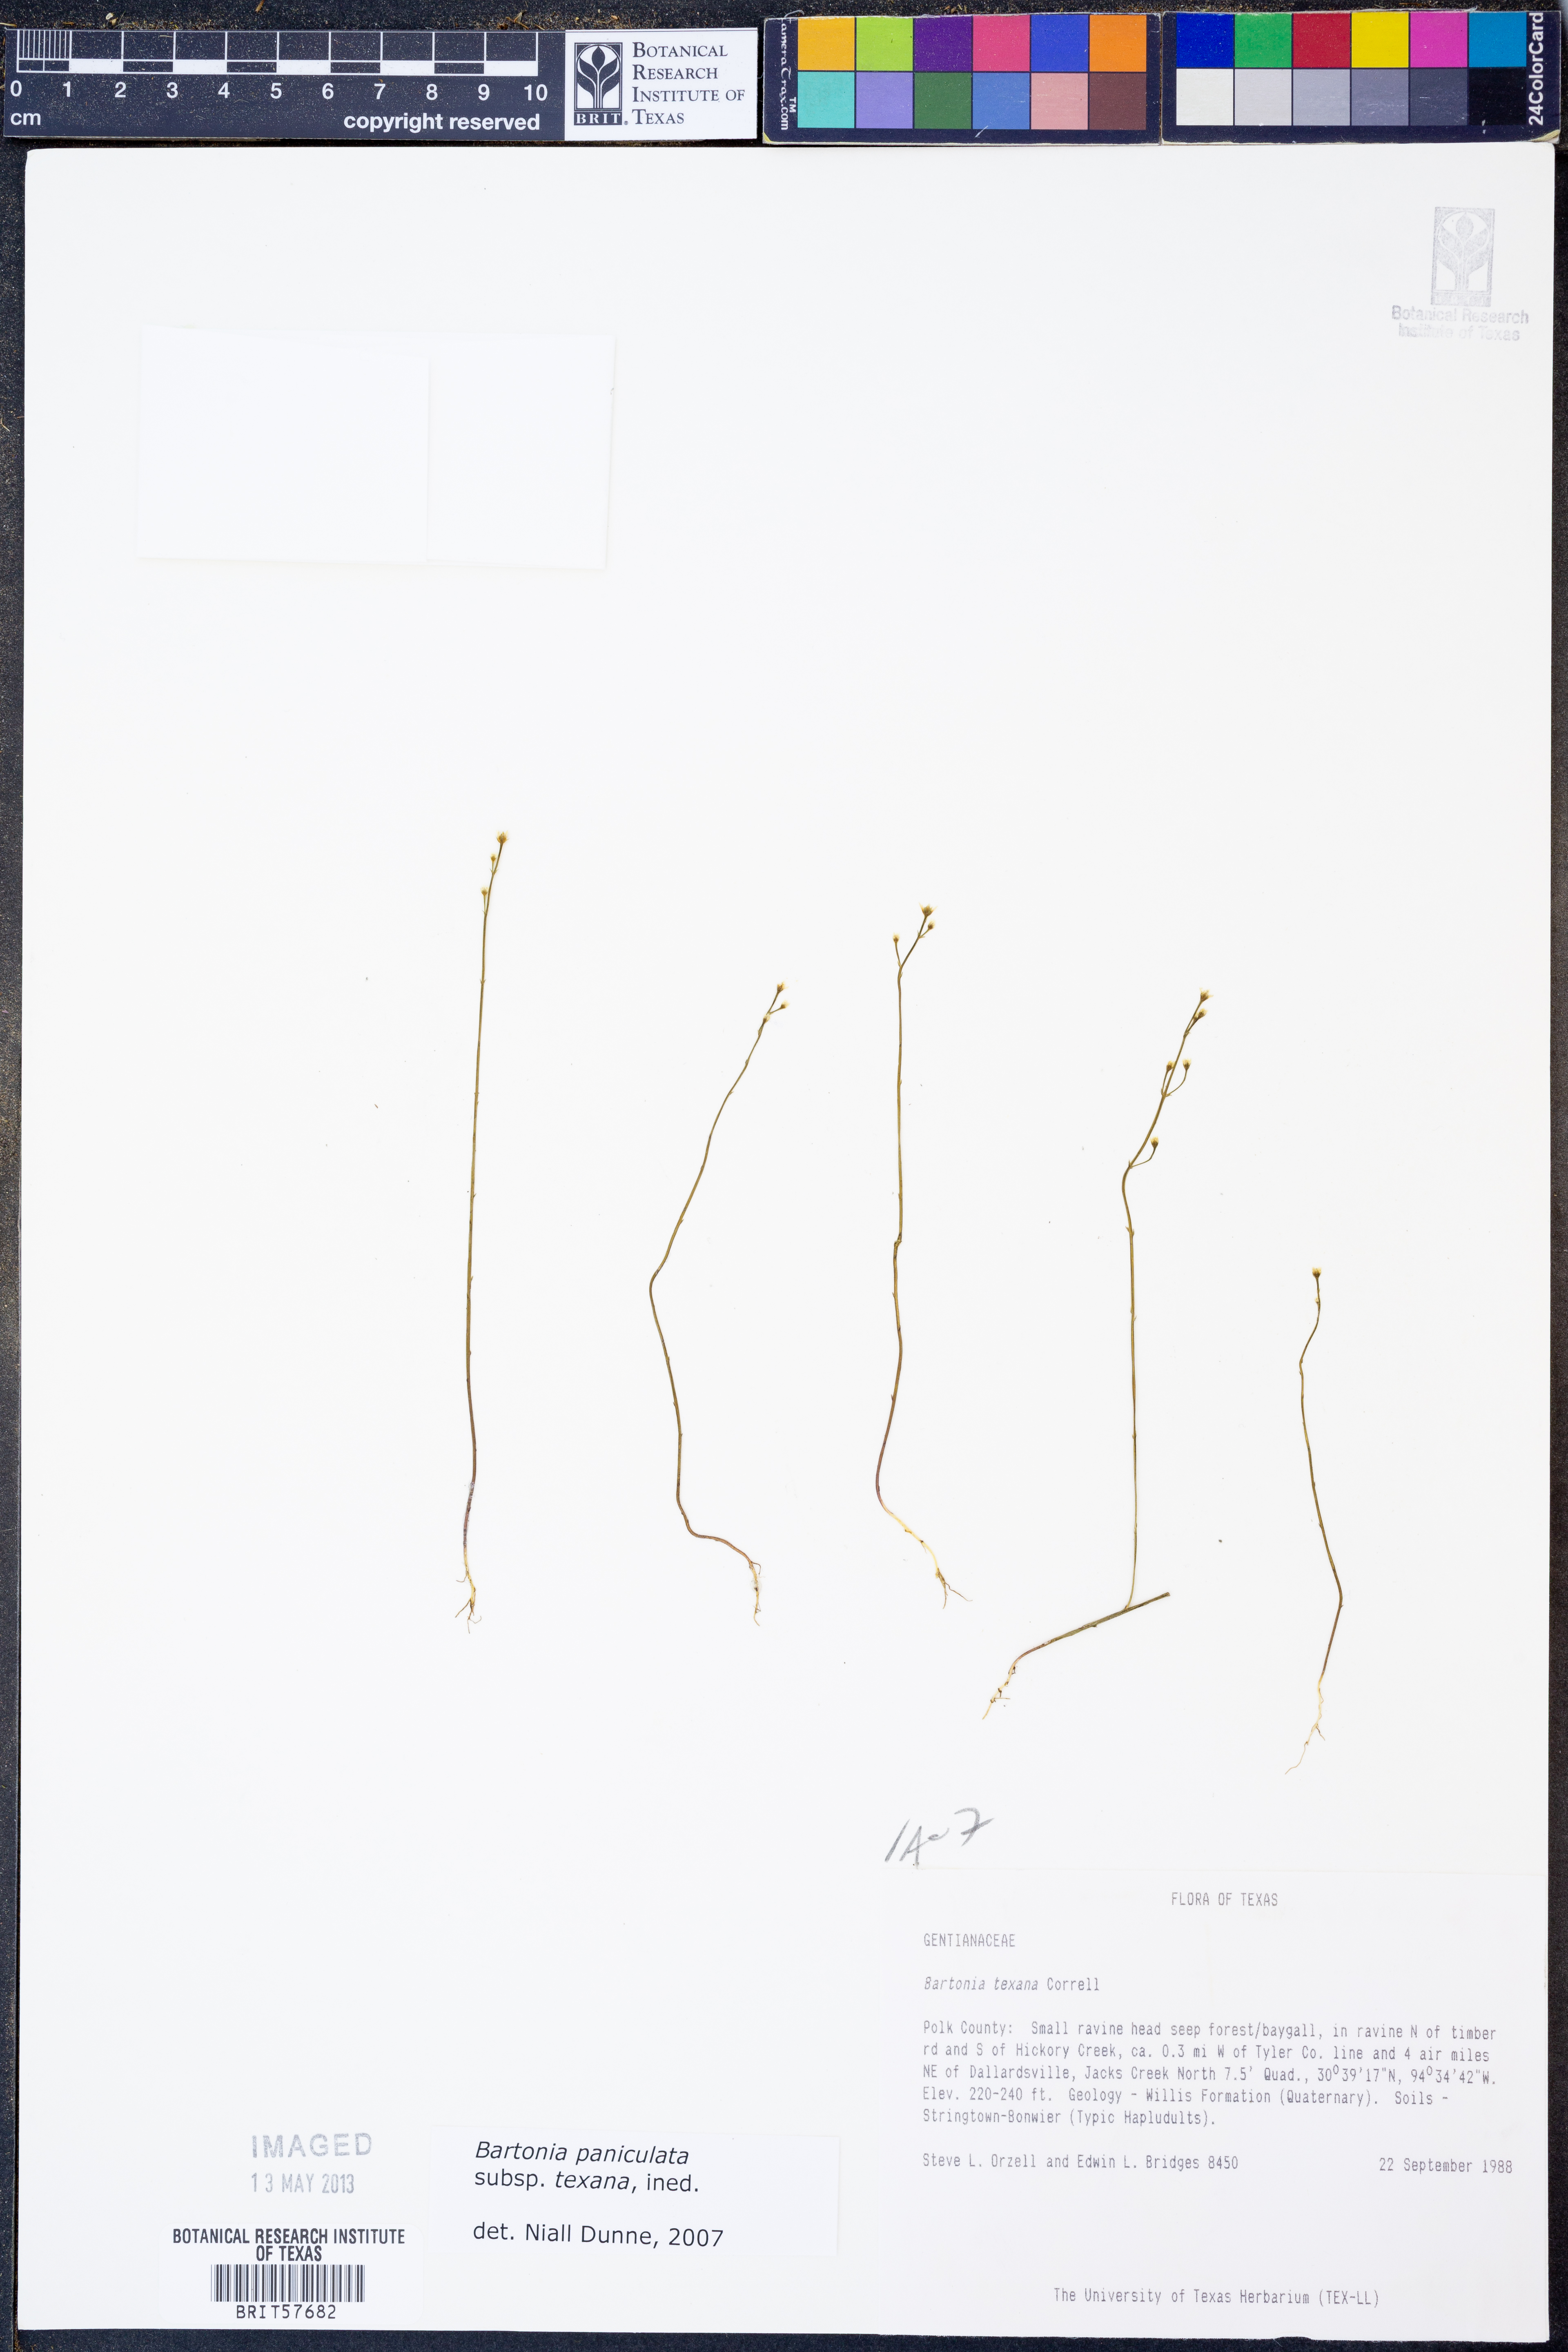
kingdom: Plantae
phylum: Tracheophyta
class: Magnoliopsida
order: Gentianales
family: Gentianaceae
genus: Bartonia
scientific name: Bartonia paniculata
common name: Branched bartonia
